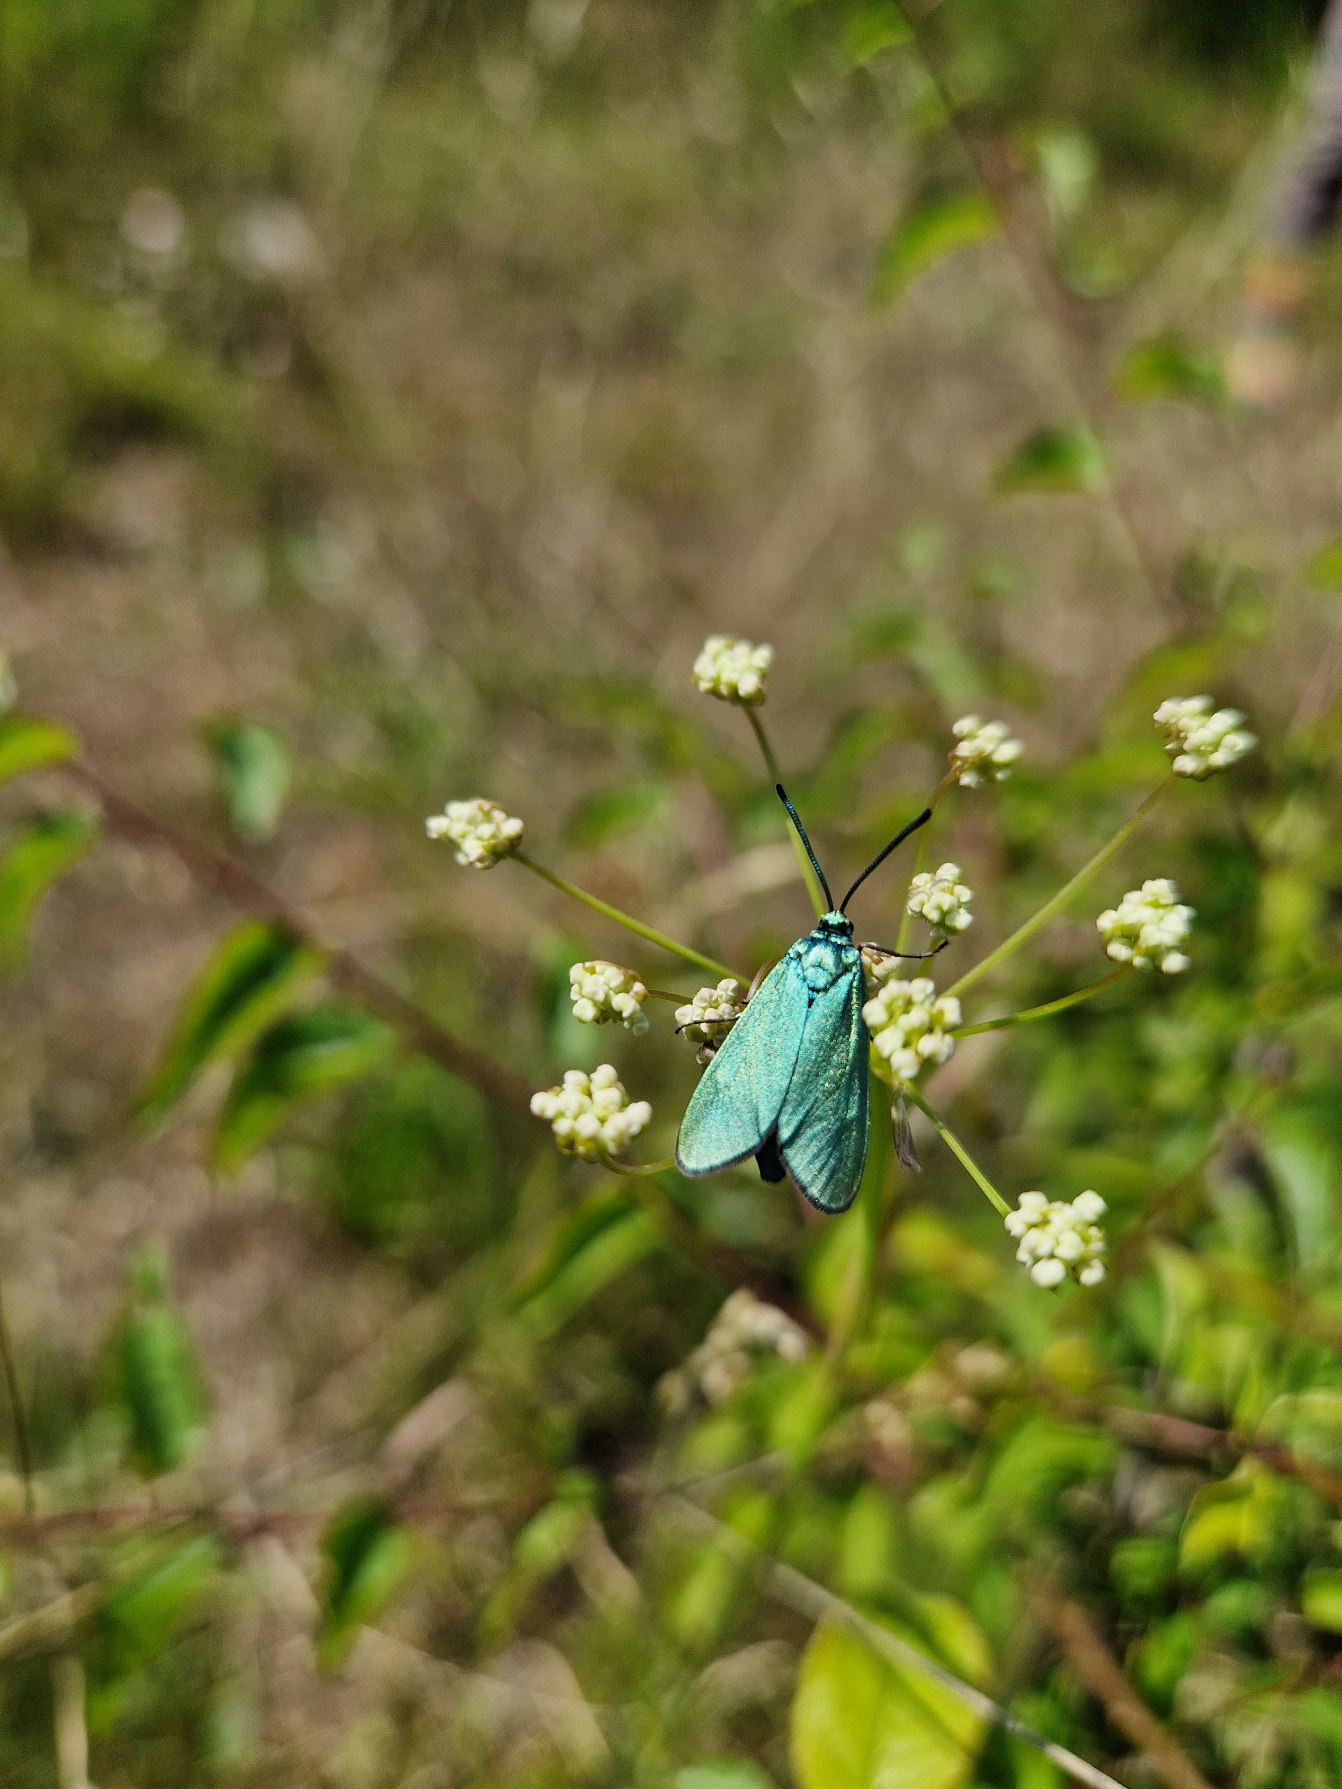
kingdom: Animalia
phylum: Arthropoda
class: Insecta
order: Lepidoptera
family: Zygaenidae
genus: Adscita
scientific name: Adscita statices
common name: Metalvinge
